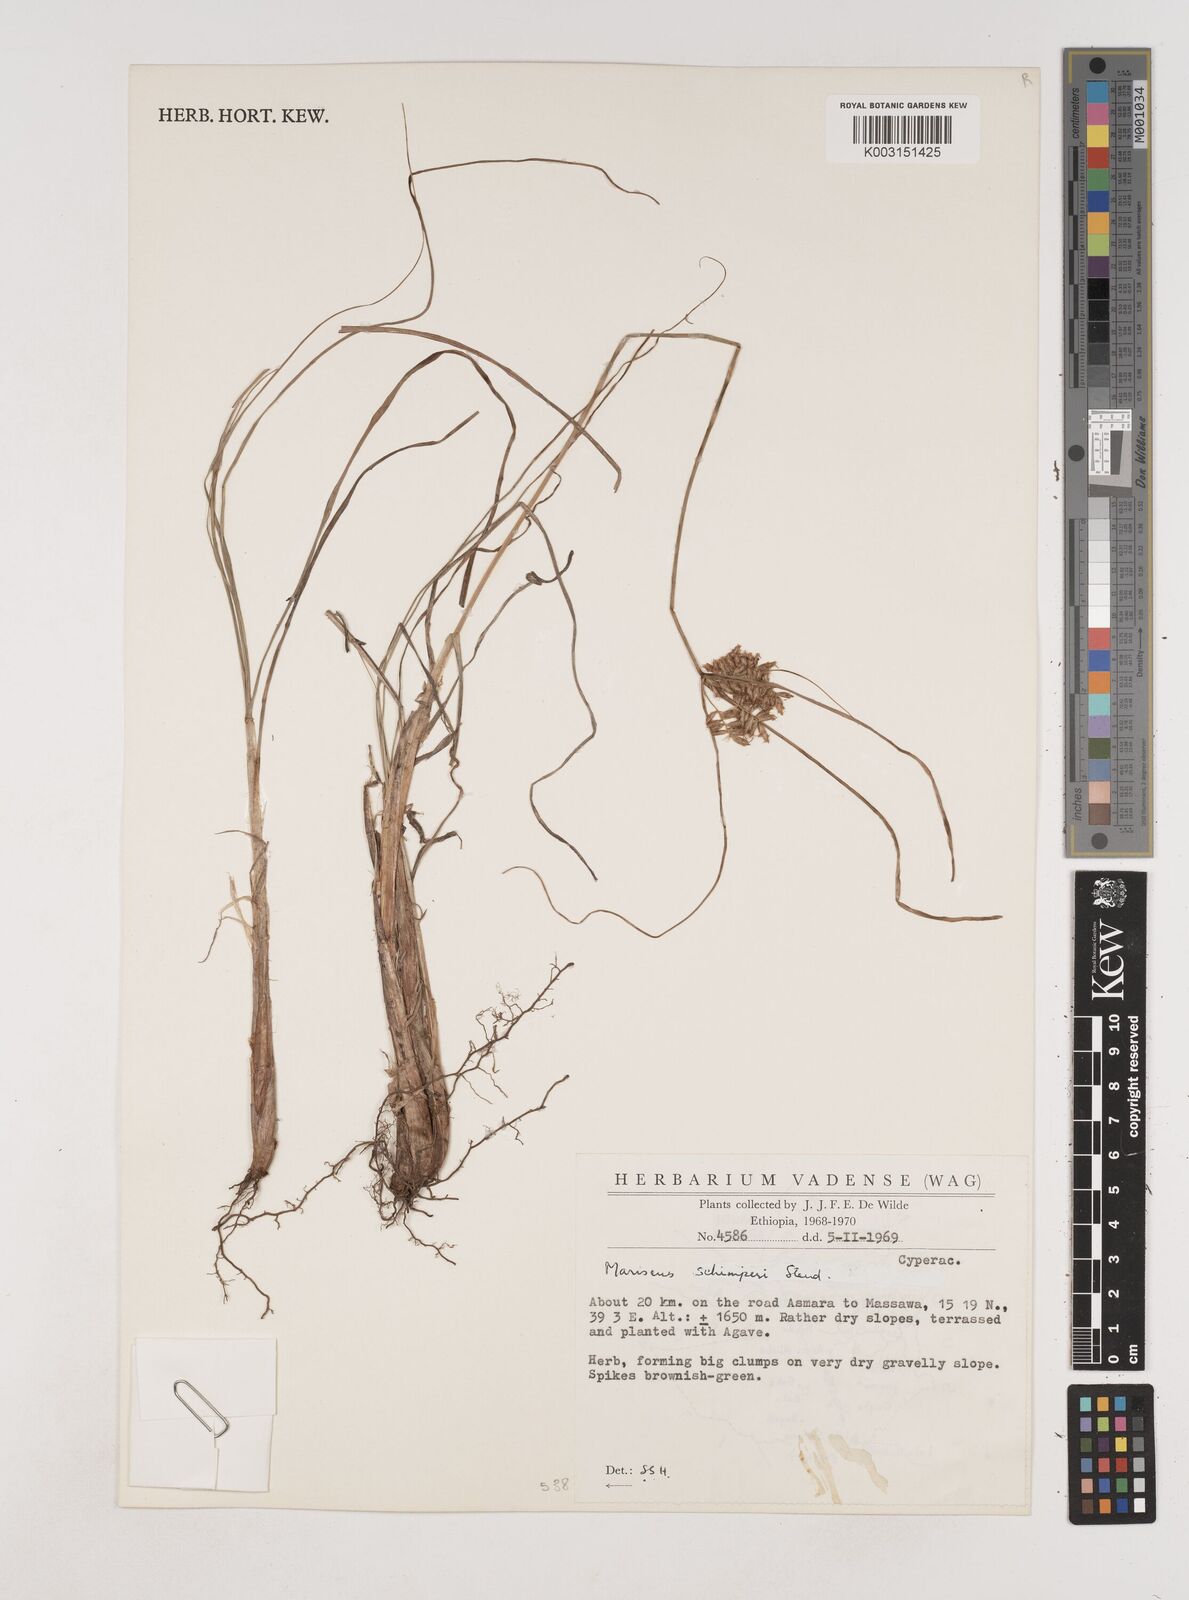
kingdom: Plantae
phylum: Tracheophyta
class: Liliopsida
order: Poales
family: Cyperaceae
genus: Cyperus
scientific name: Cyperus schimperianus
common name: Schimper flatsedge
